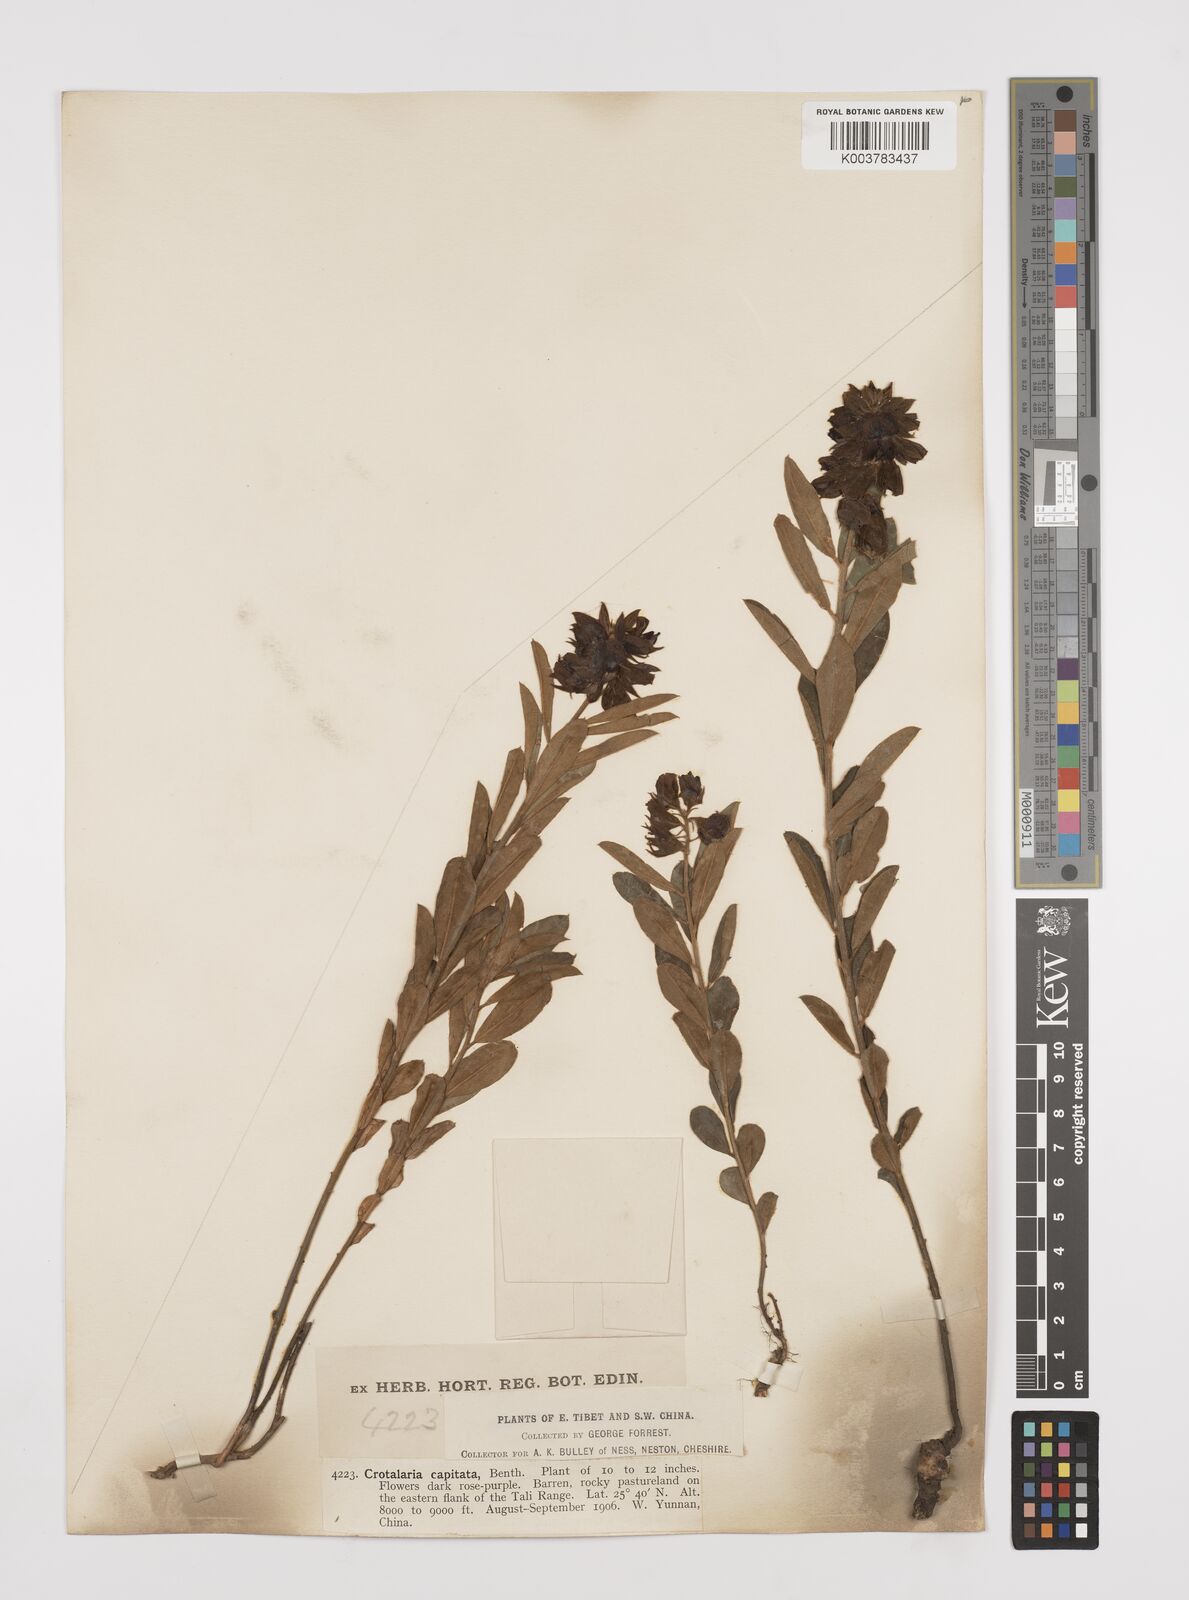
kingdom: Plantae
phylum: Tracheophyta
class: Magnoliopsida
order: Fabales
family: Fabaceae
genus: Liparia
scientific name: Liparia capitata
